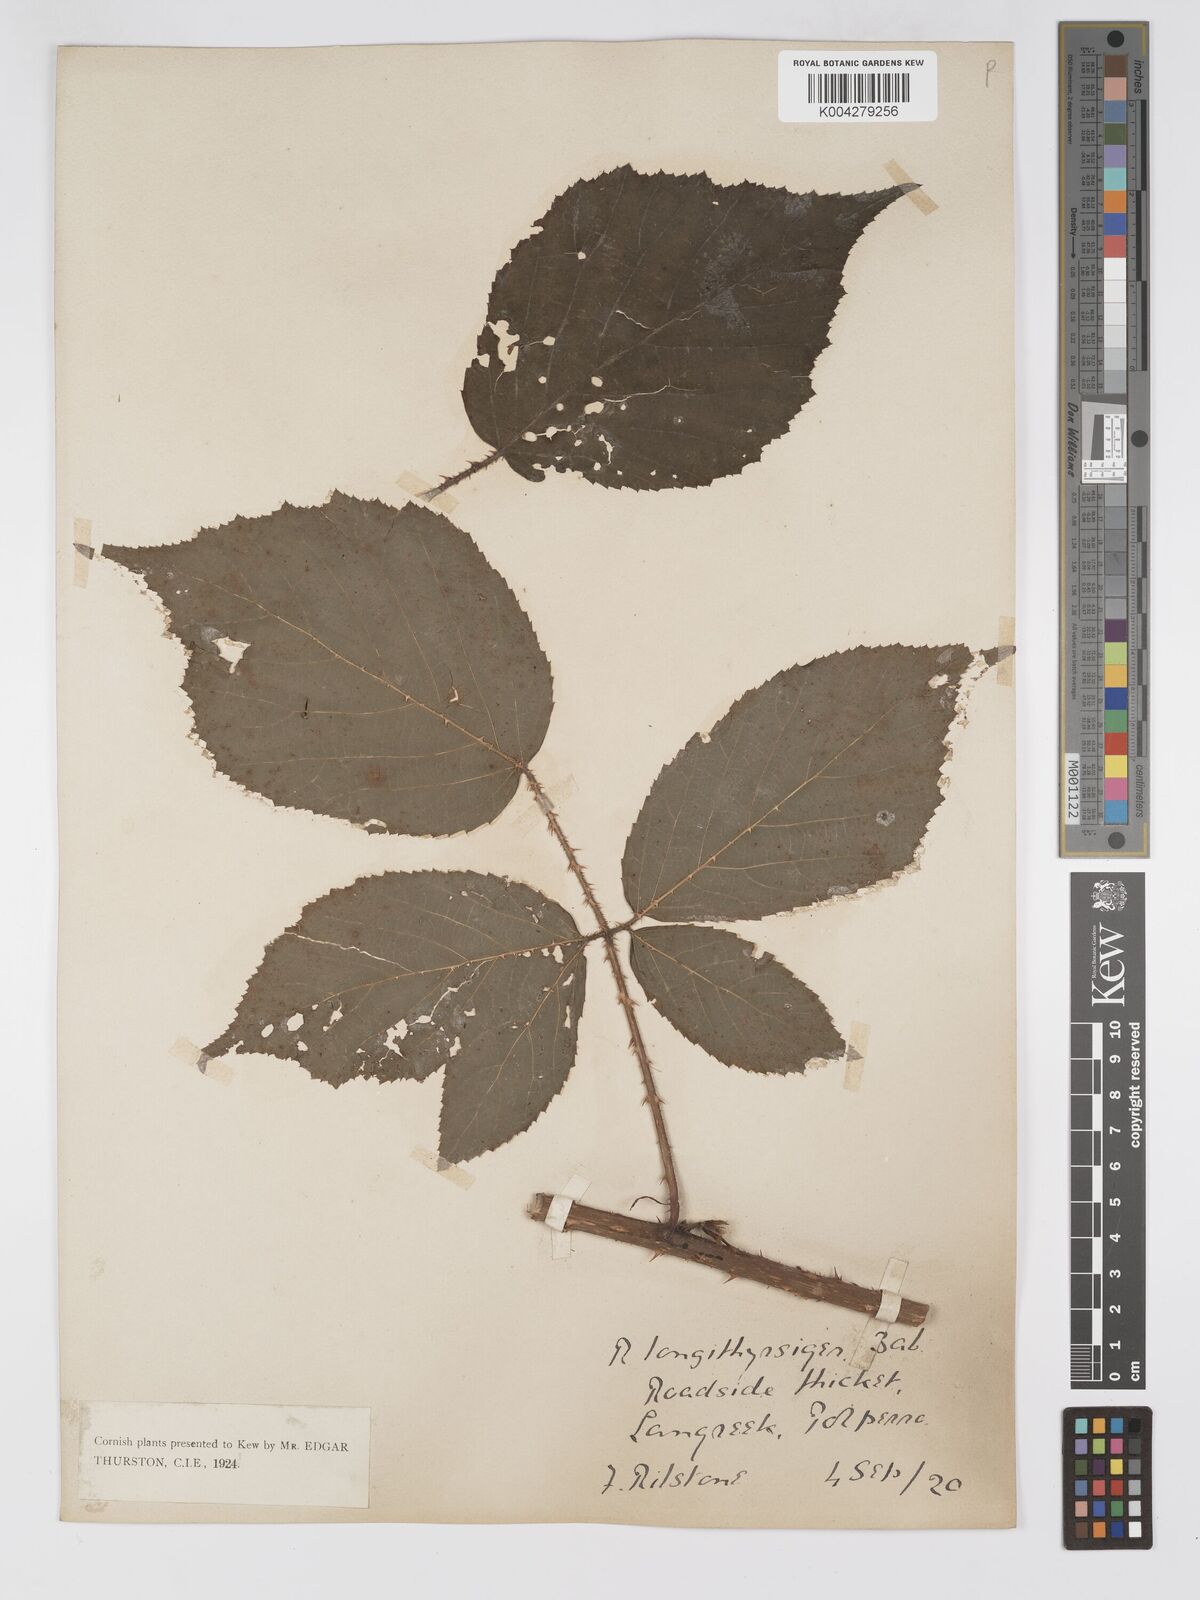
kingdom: Plantae
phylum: Tracheophyta
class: Magnoliopsida
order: Rosales
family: Rosaceae
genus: Rubus
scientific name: Rubus longithyrsiger
